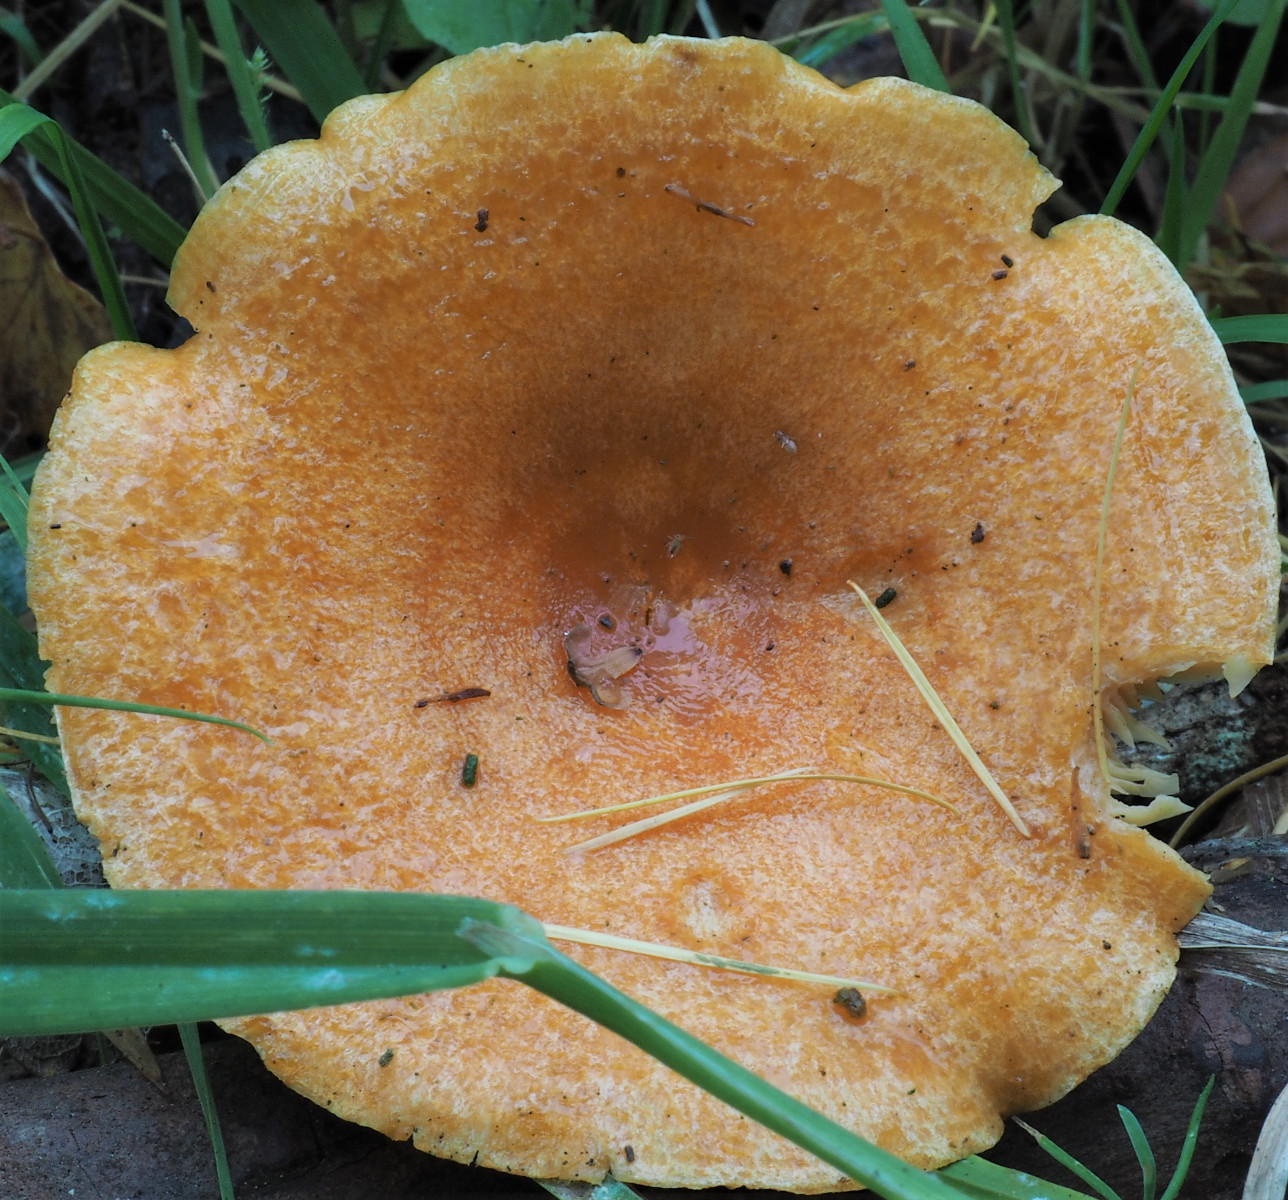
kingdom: Fungi
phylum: Basidiomycota
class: Agaricomycetes
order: Russulales
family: Russulaceae
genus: Lactarius
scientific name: Lactarius porninsis
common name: lærke-mælkehat
